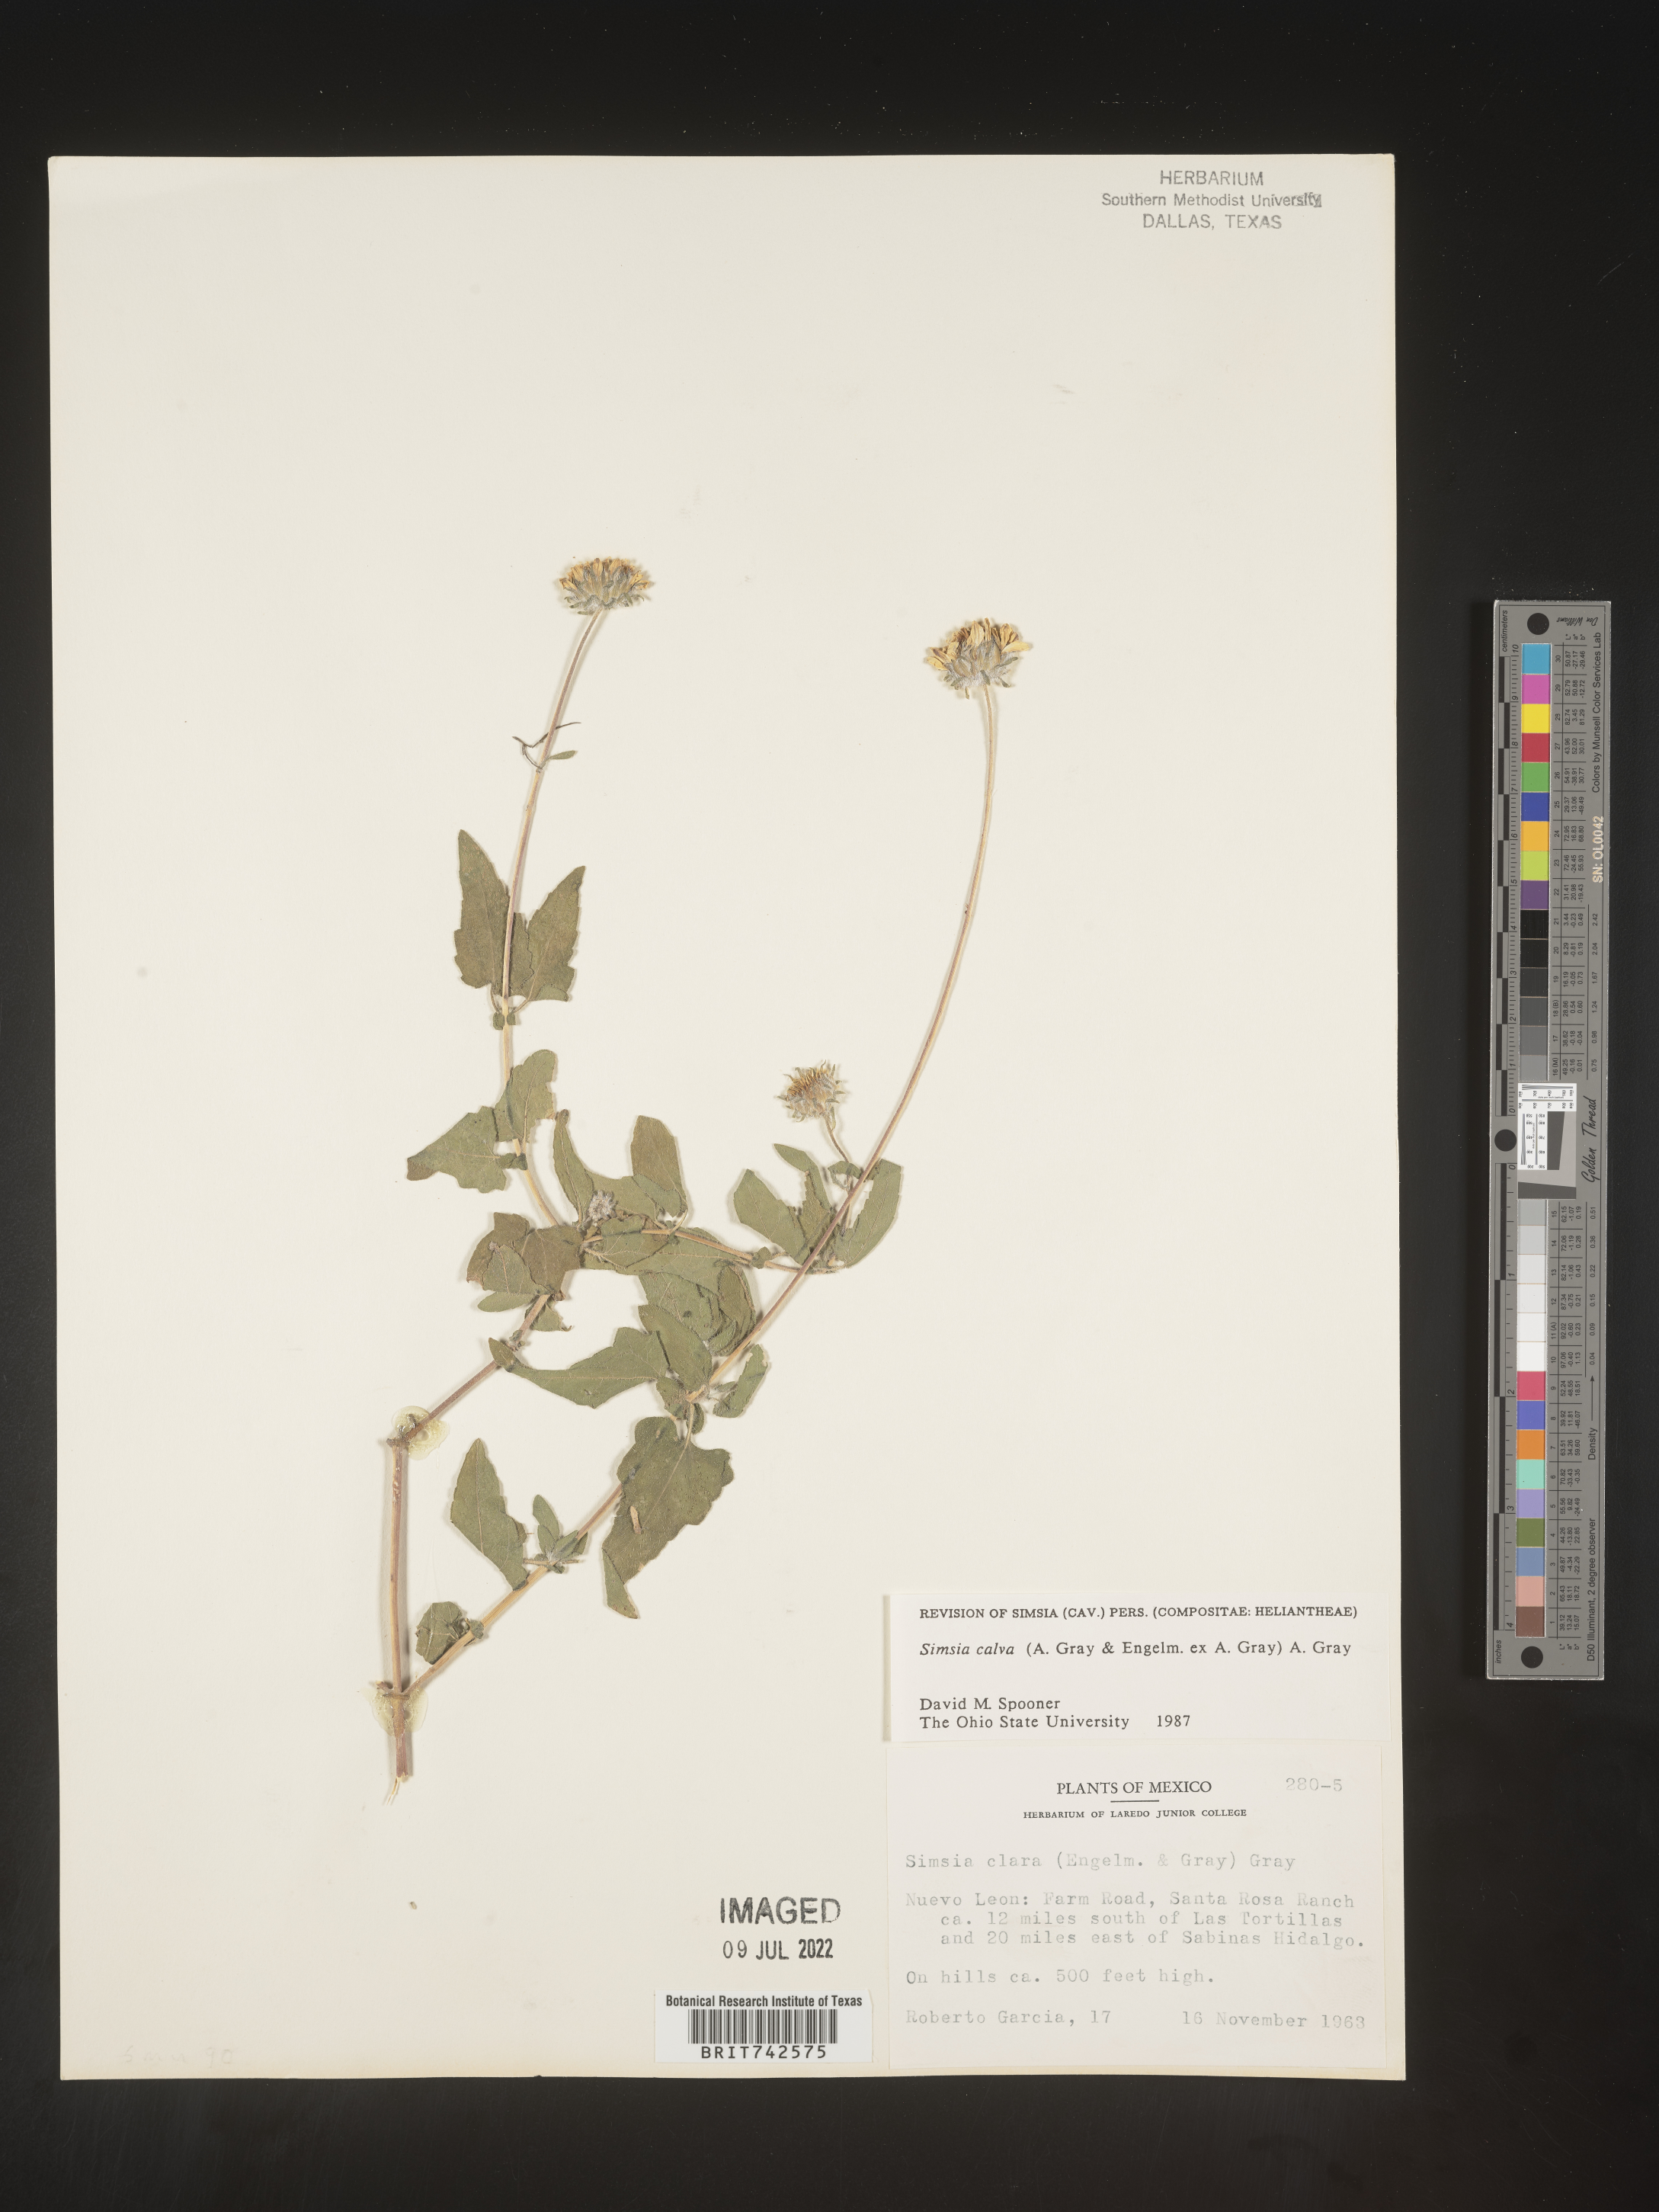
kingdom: Plantae
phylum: Tracheophyta
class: Magnoliopsida
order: Asterales
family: Asteraceae
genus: Simsia
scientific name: Simsia
